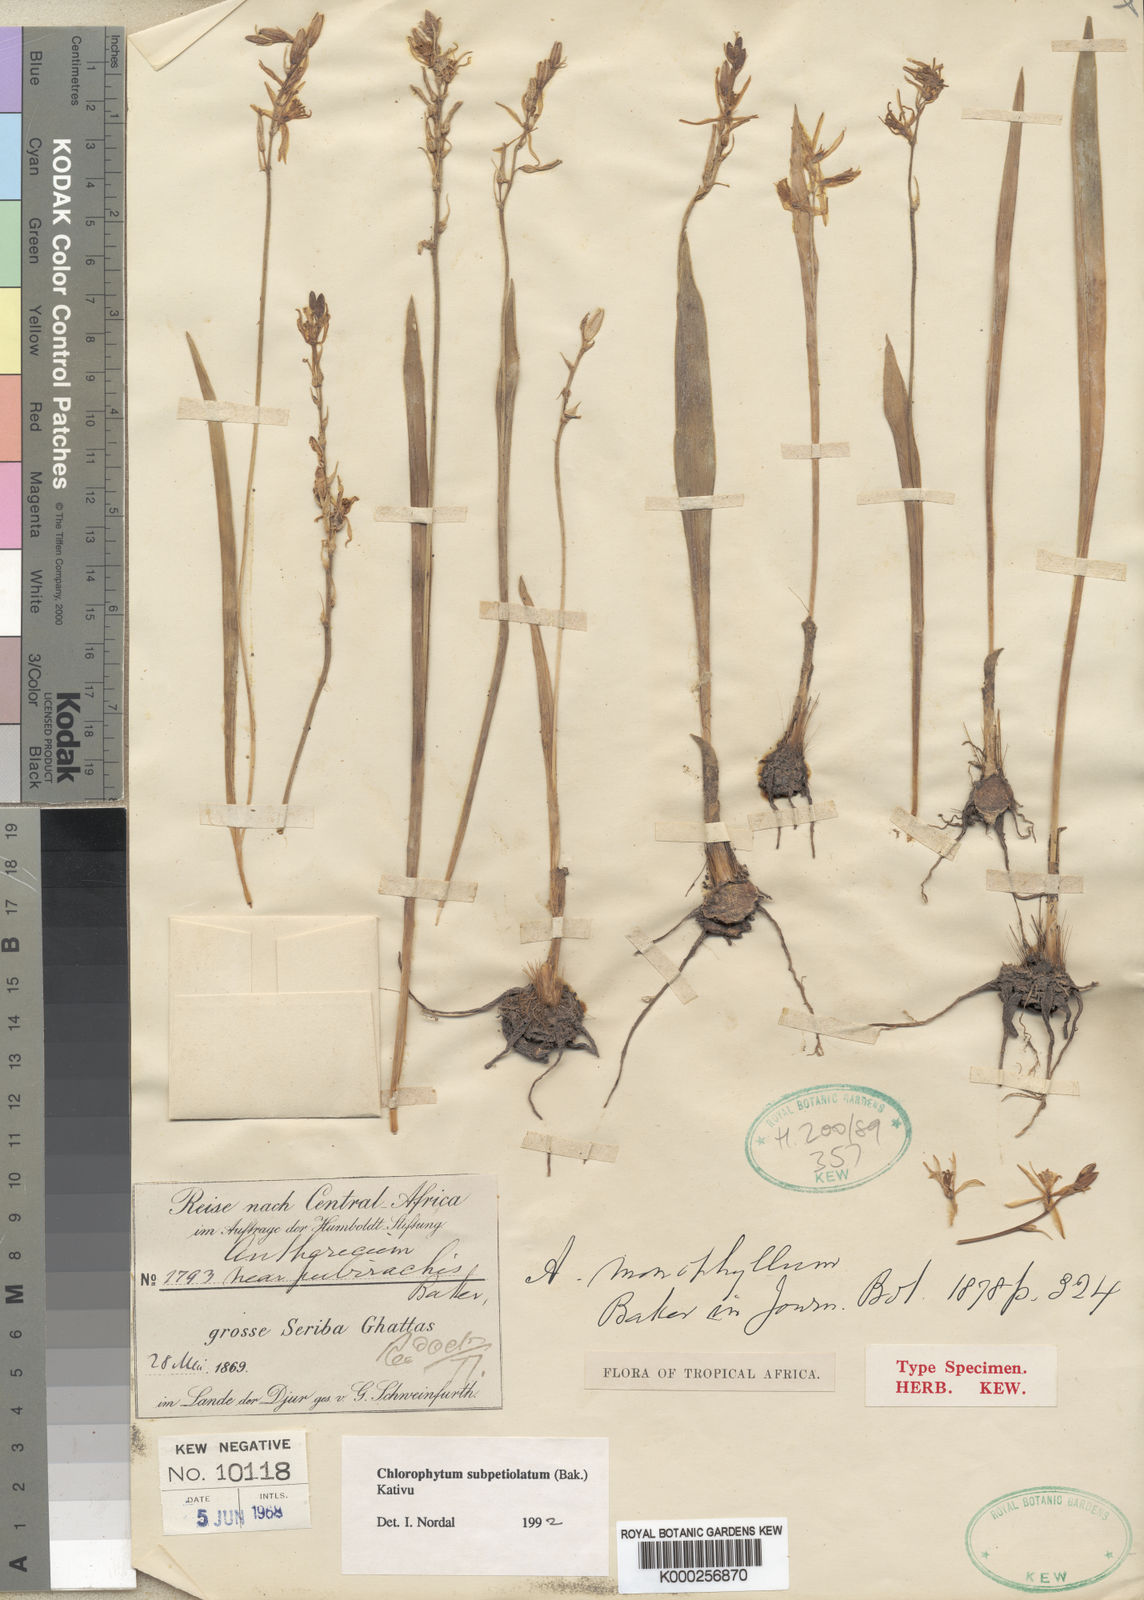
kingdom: Plantae
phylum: Tracheophyta
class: Liliopsida
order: Asparagales
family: Asparagaceae
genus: Chlorophytum
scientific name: Chlorophytum subpetiolatum
